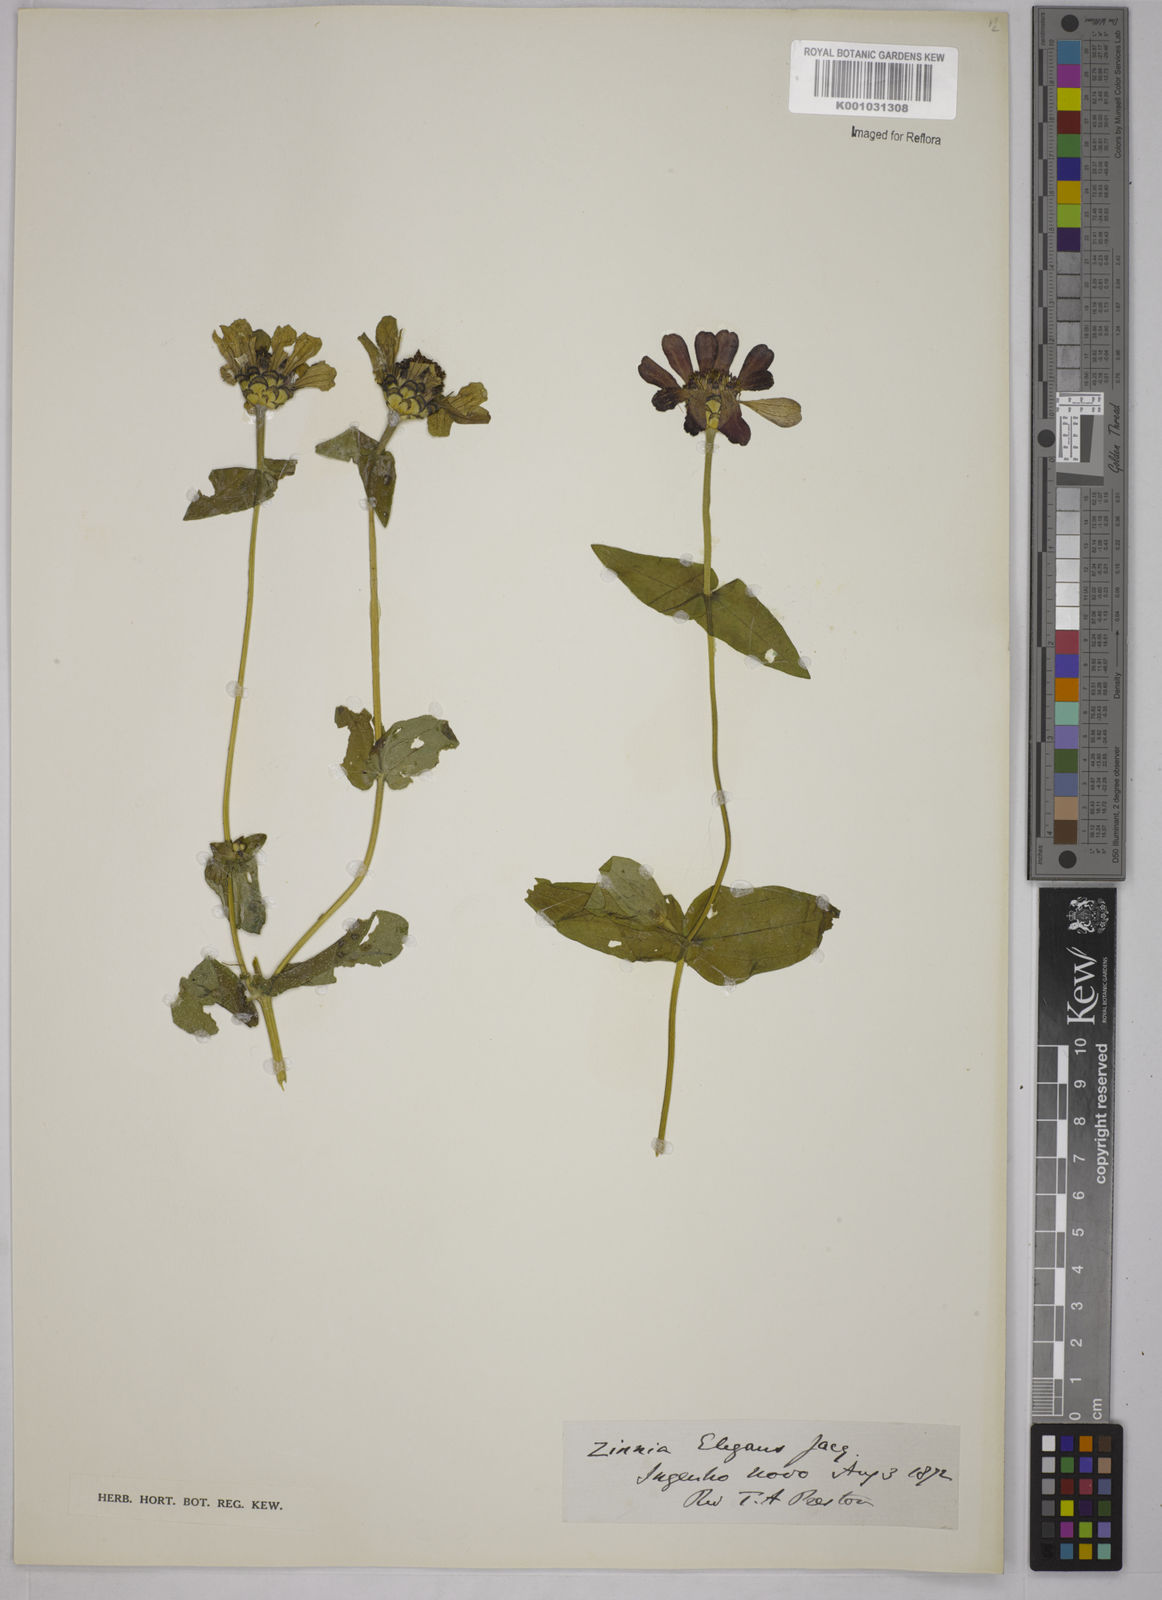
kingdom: Plantae
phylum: Tracheophyta
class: Magnoliopsida
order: Asterales
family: Asteraceae
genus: Zinnia
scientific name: Zinnia elegans
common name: Youth-and-age
